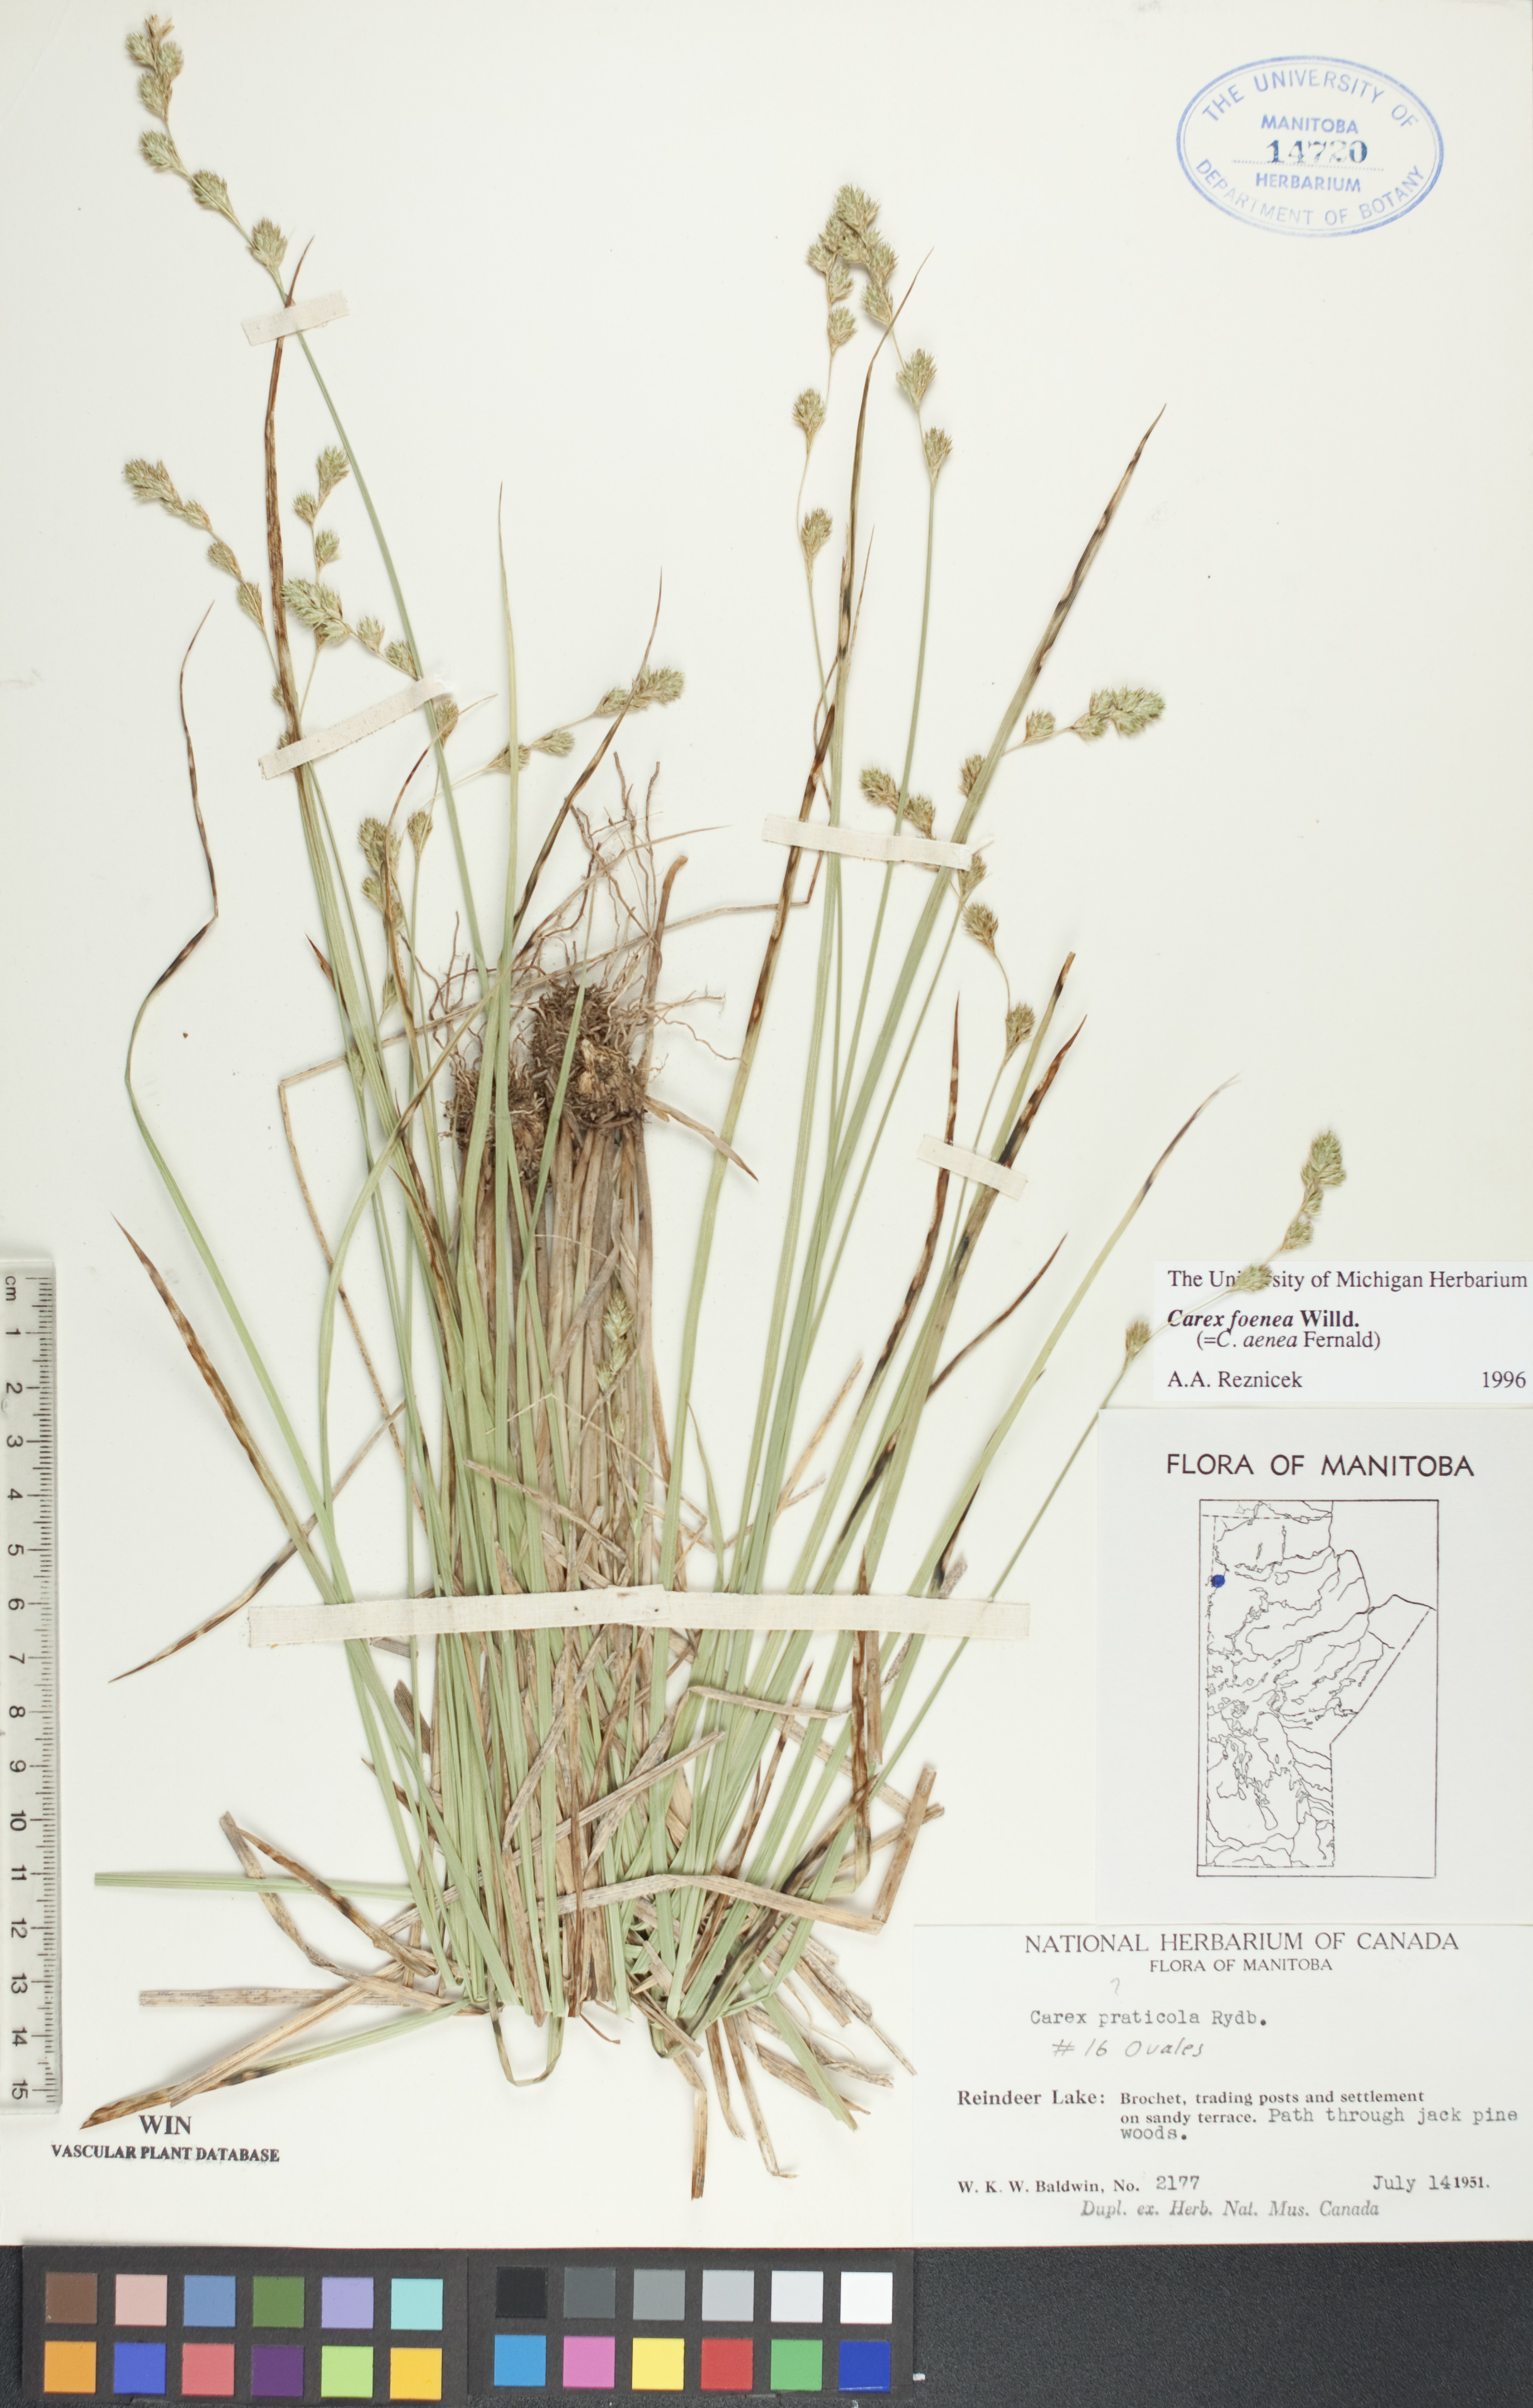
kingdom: Plantae
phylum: Tracheophyta
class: Liliopsida
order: Poales
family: Cyperaceae
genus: Carex
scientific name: Carex foenea
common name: Bronze sedge
